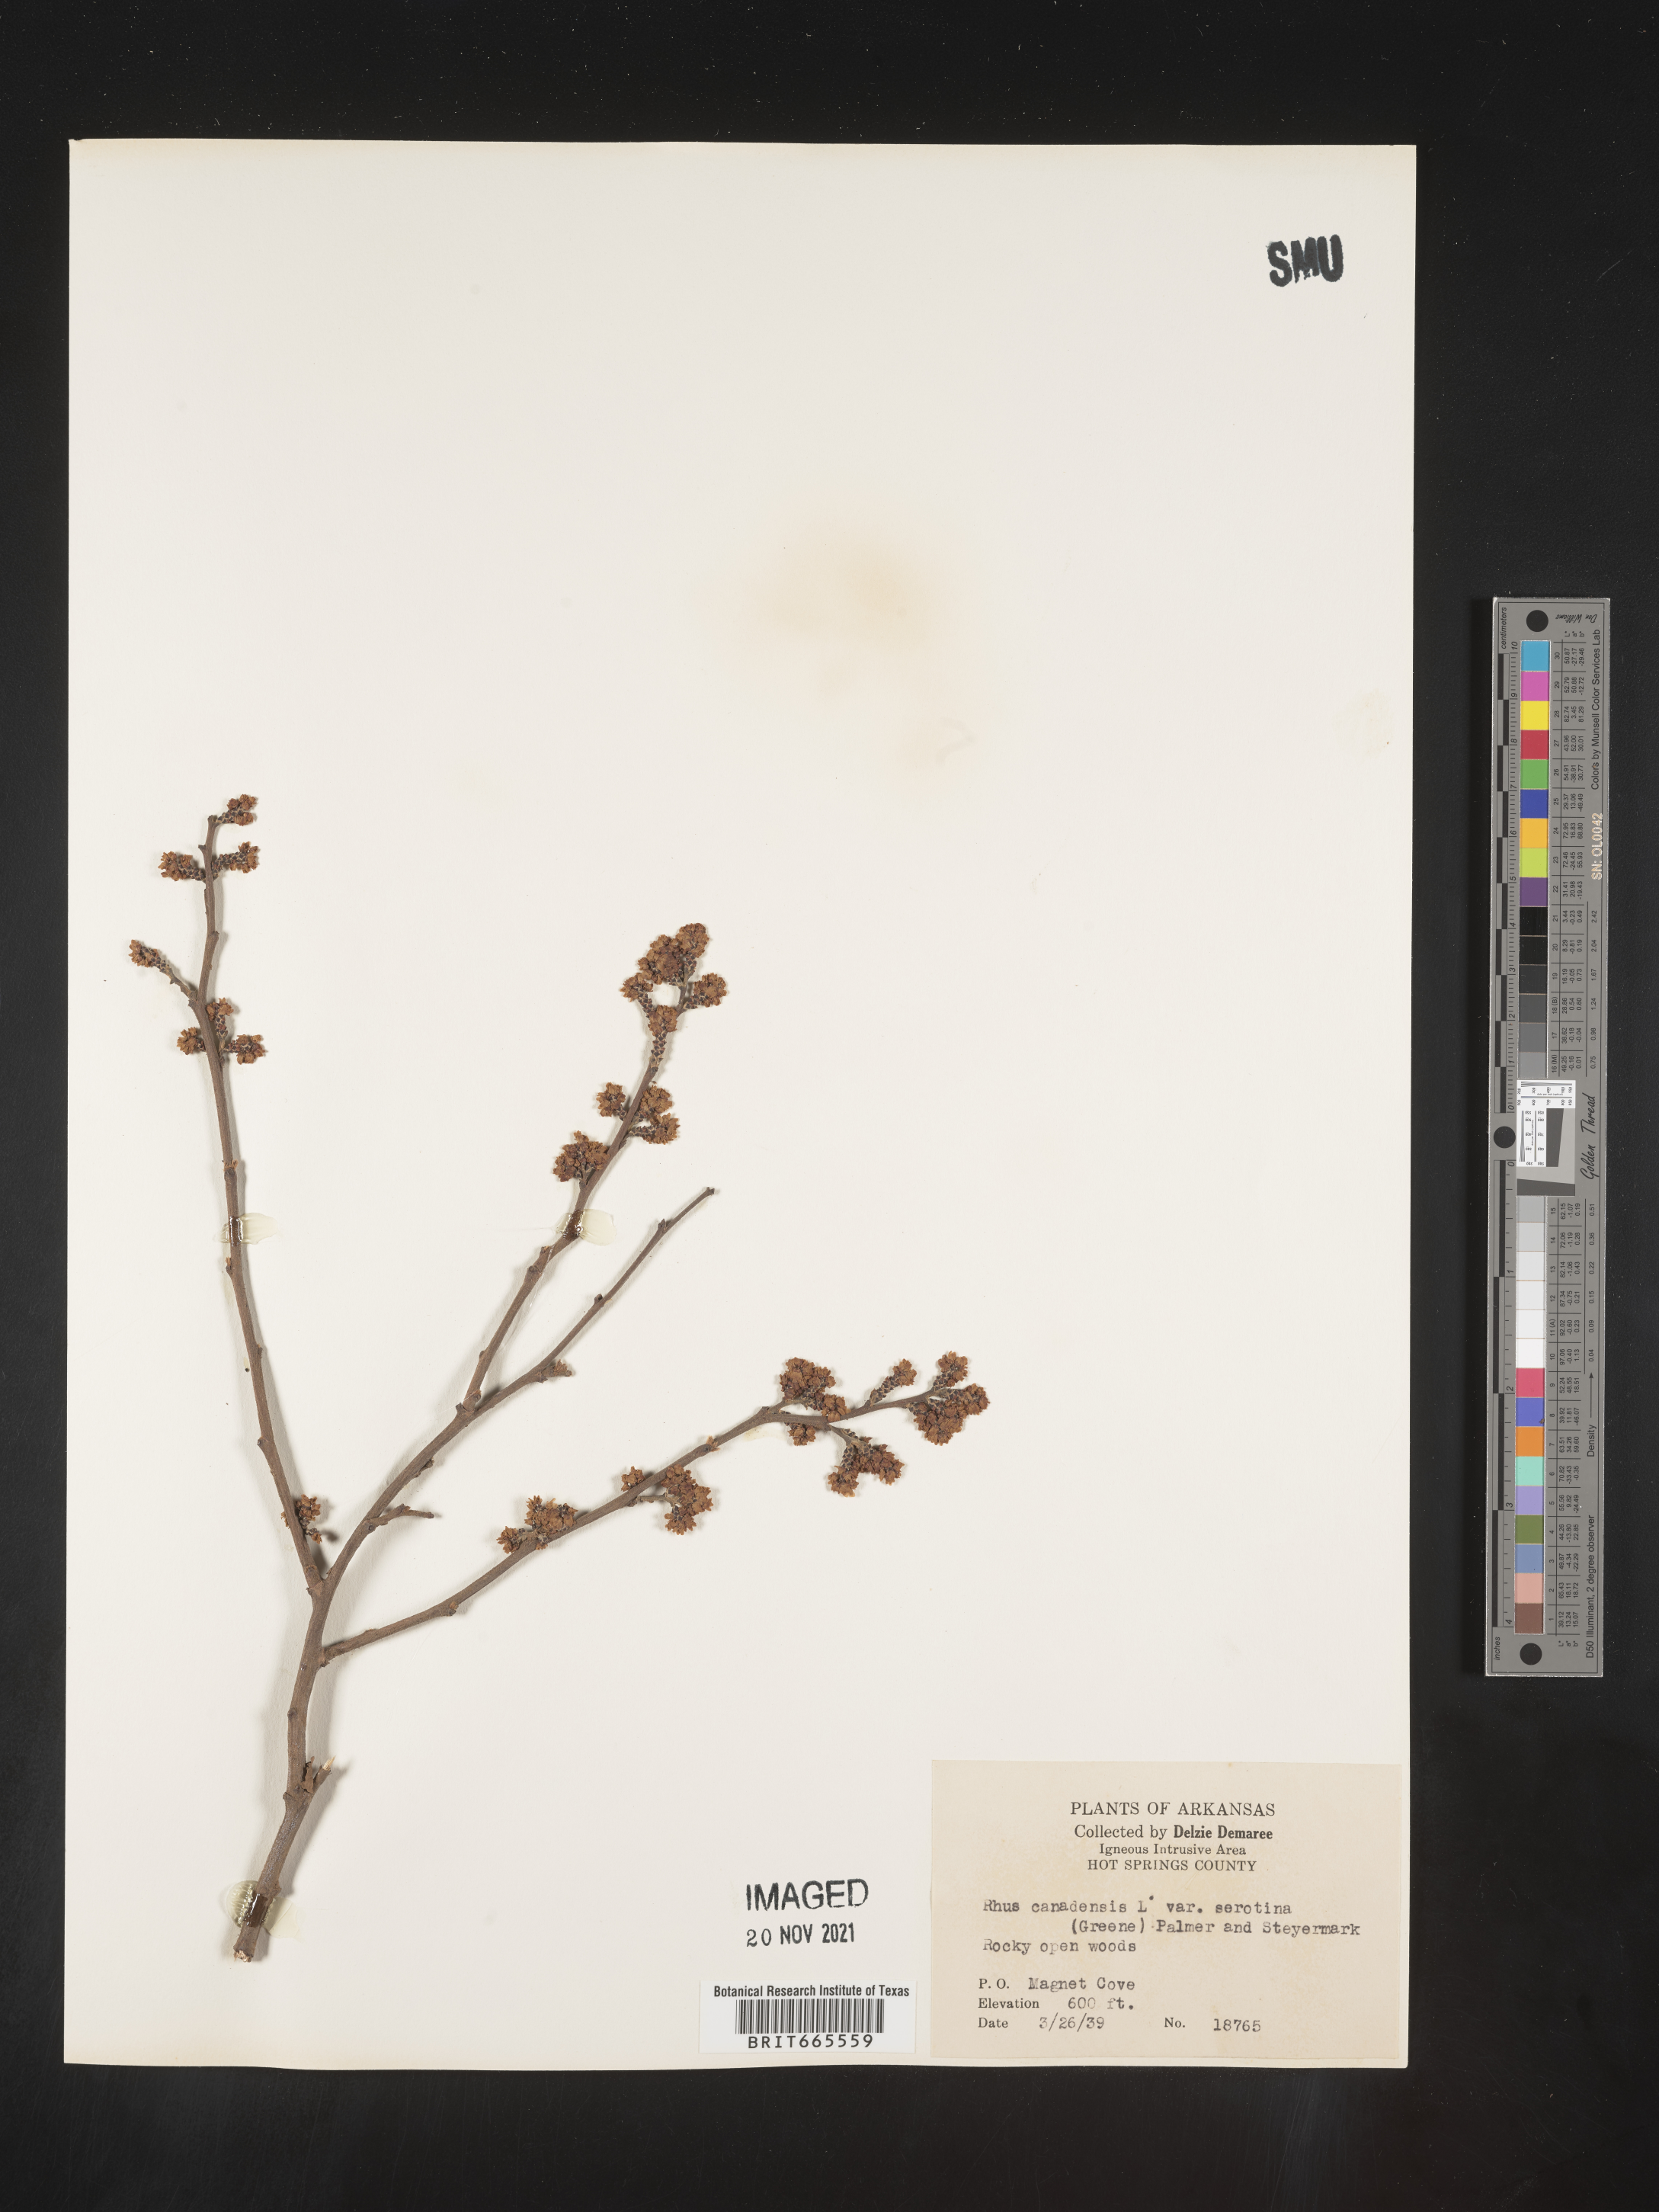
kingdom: Plantae
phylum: Tracheophyta
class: Magnoliopsida
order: Sapindales
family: Anacardiaceae
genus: Rhus
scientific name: Rhus aromatica
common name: Aromatic sumac
